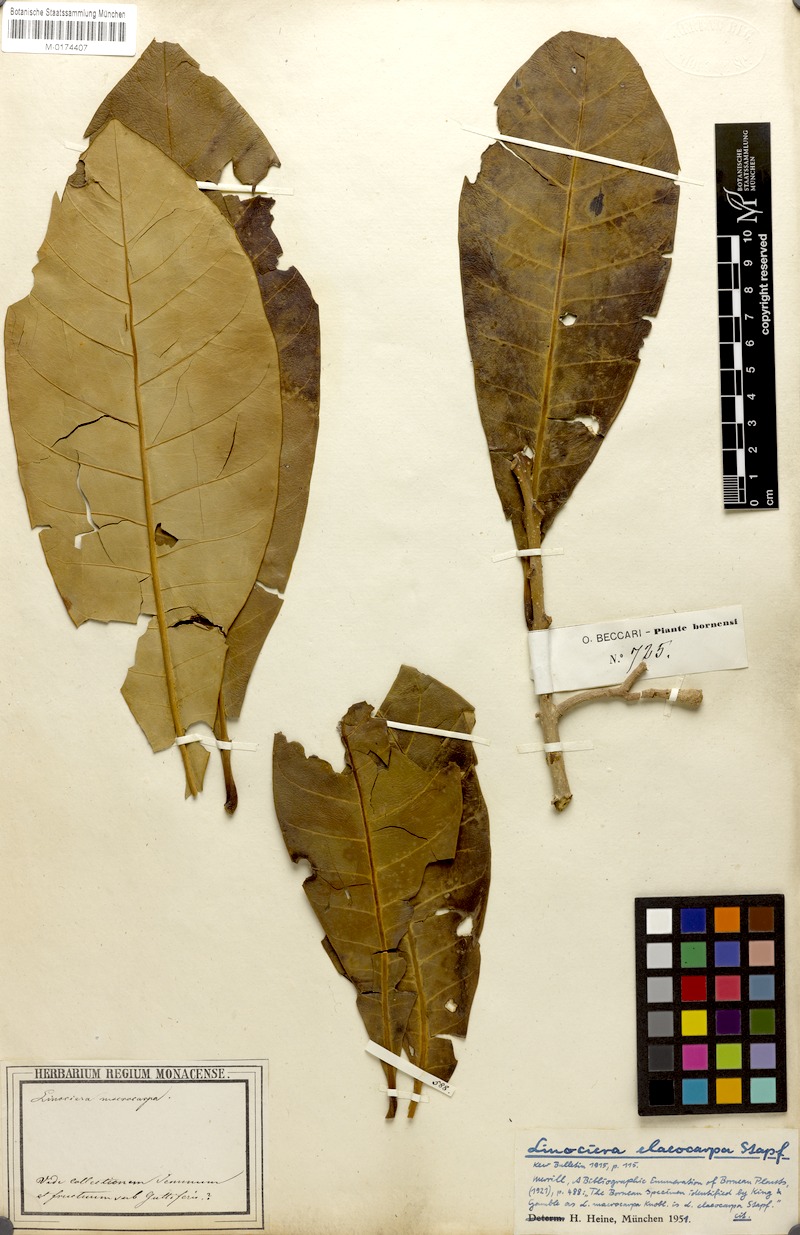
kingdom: Plantae
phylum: Tracheophyta
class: Magnoliopsida
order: Lamiales
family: Oleaceae
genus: Chionanthus
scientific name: Chionanthus macrocarpus
